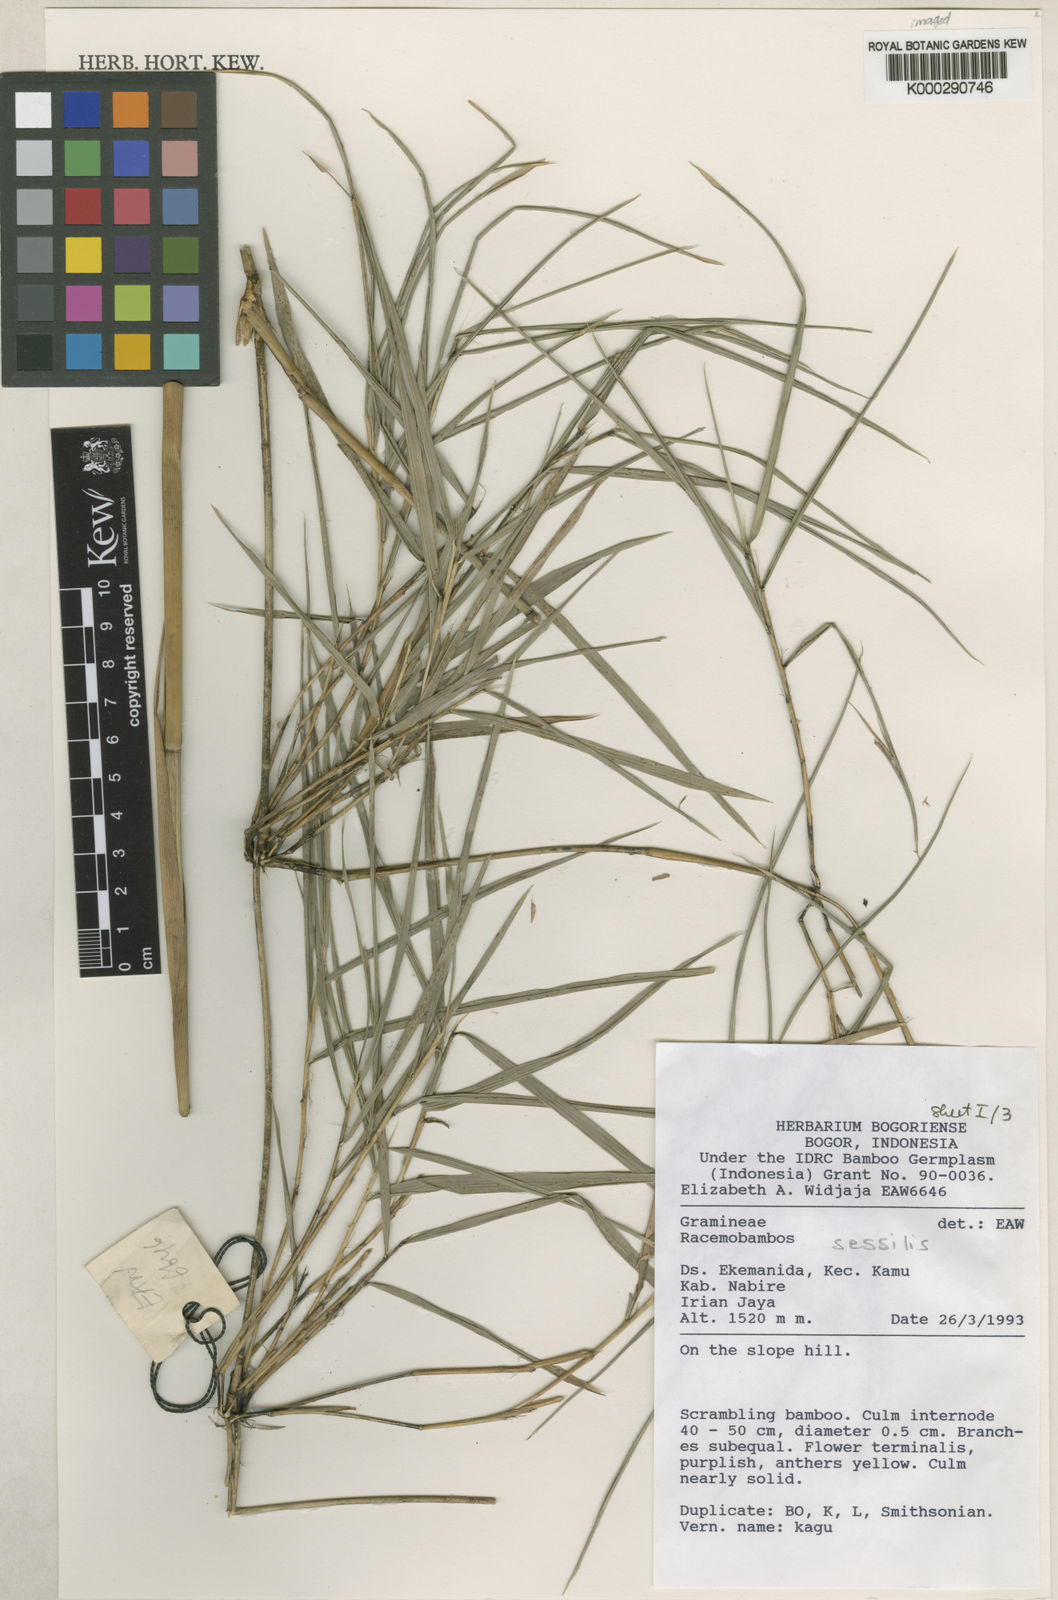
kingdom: Plantae
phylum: Tracheophyta
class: Liliopsida
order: Poales
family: Poaceae
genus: Racemobambos
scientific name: Racemobambos sessilis
